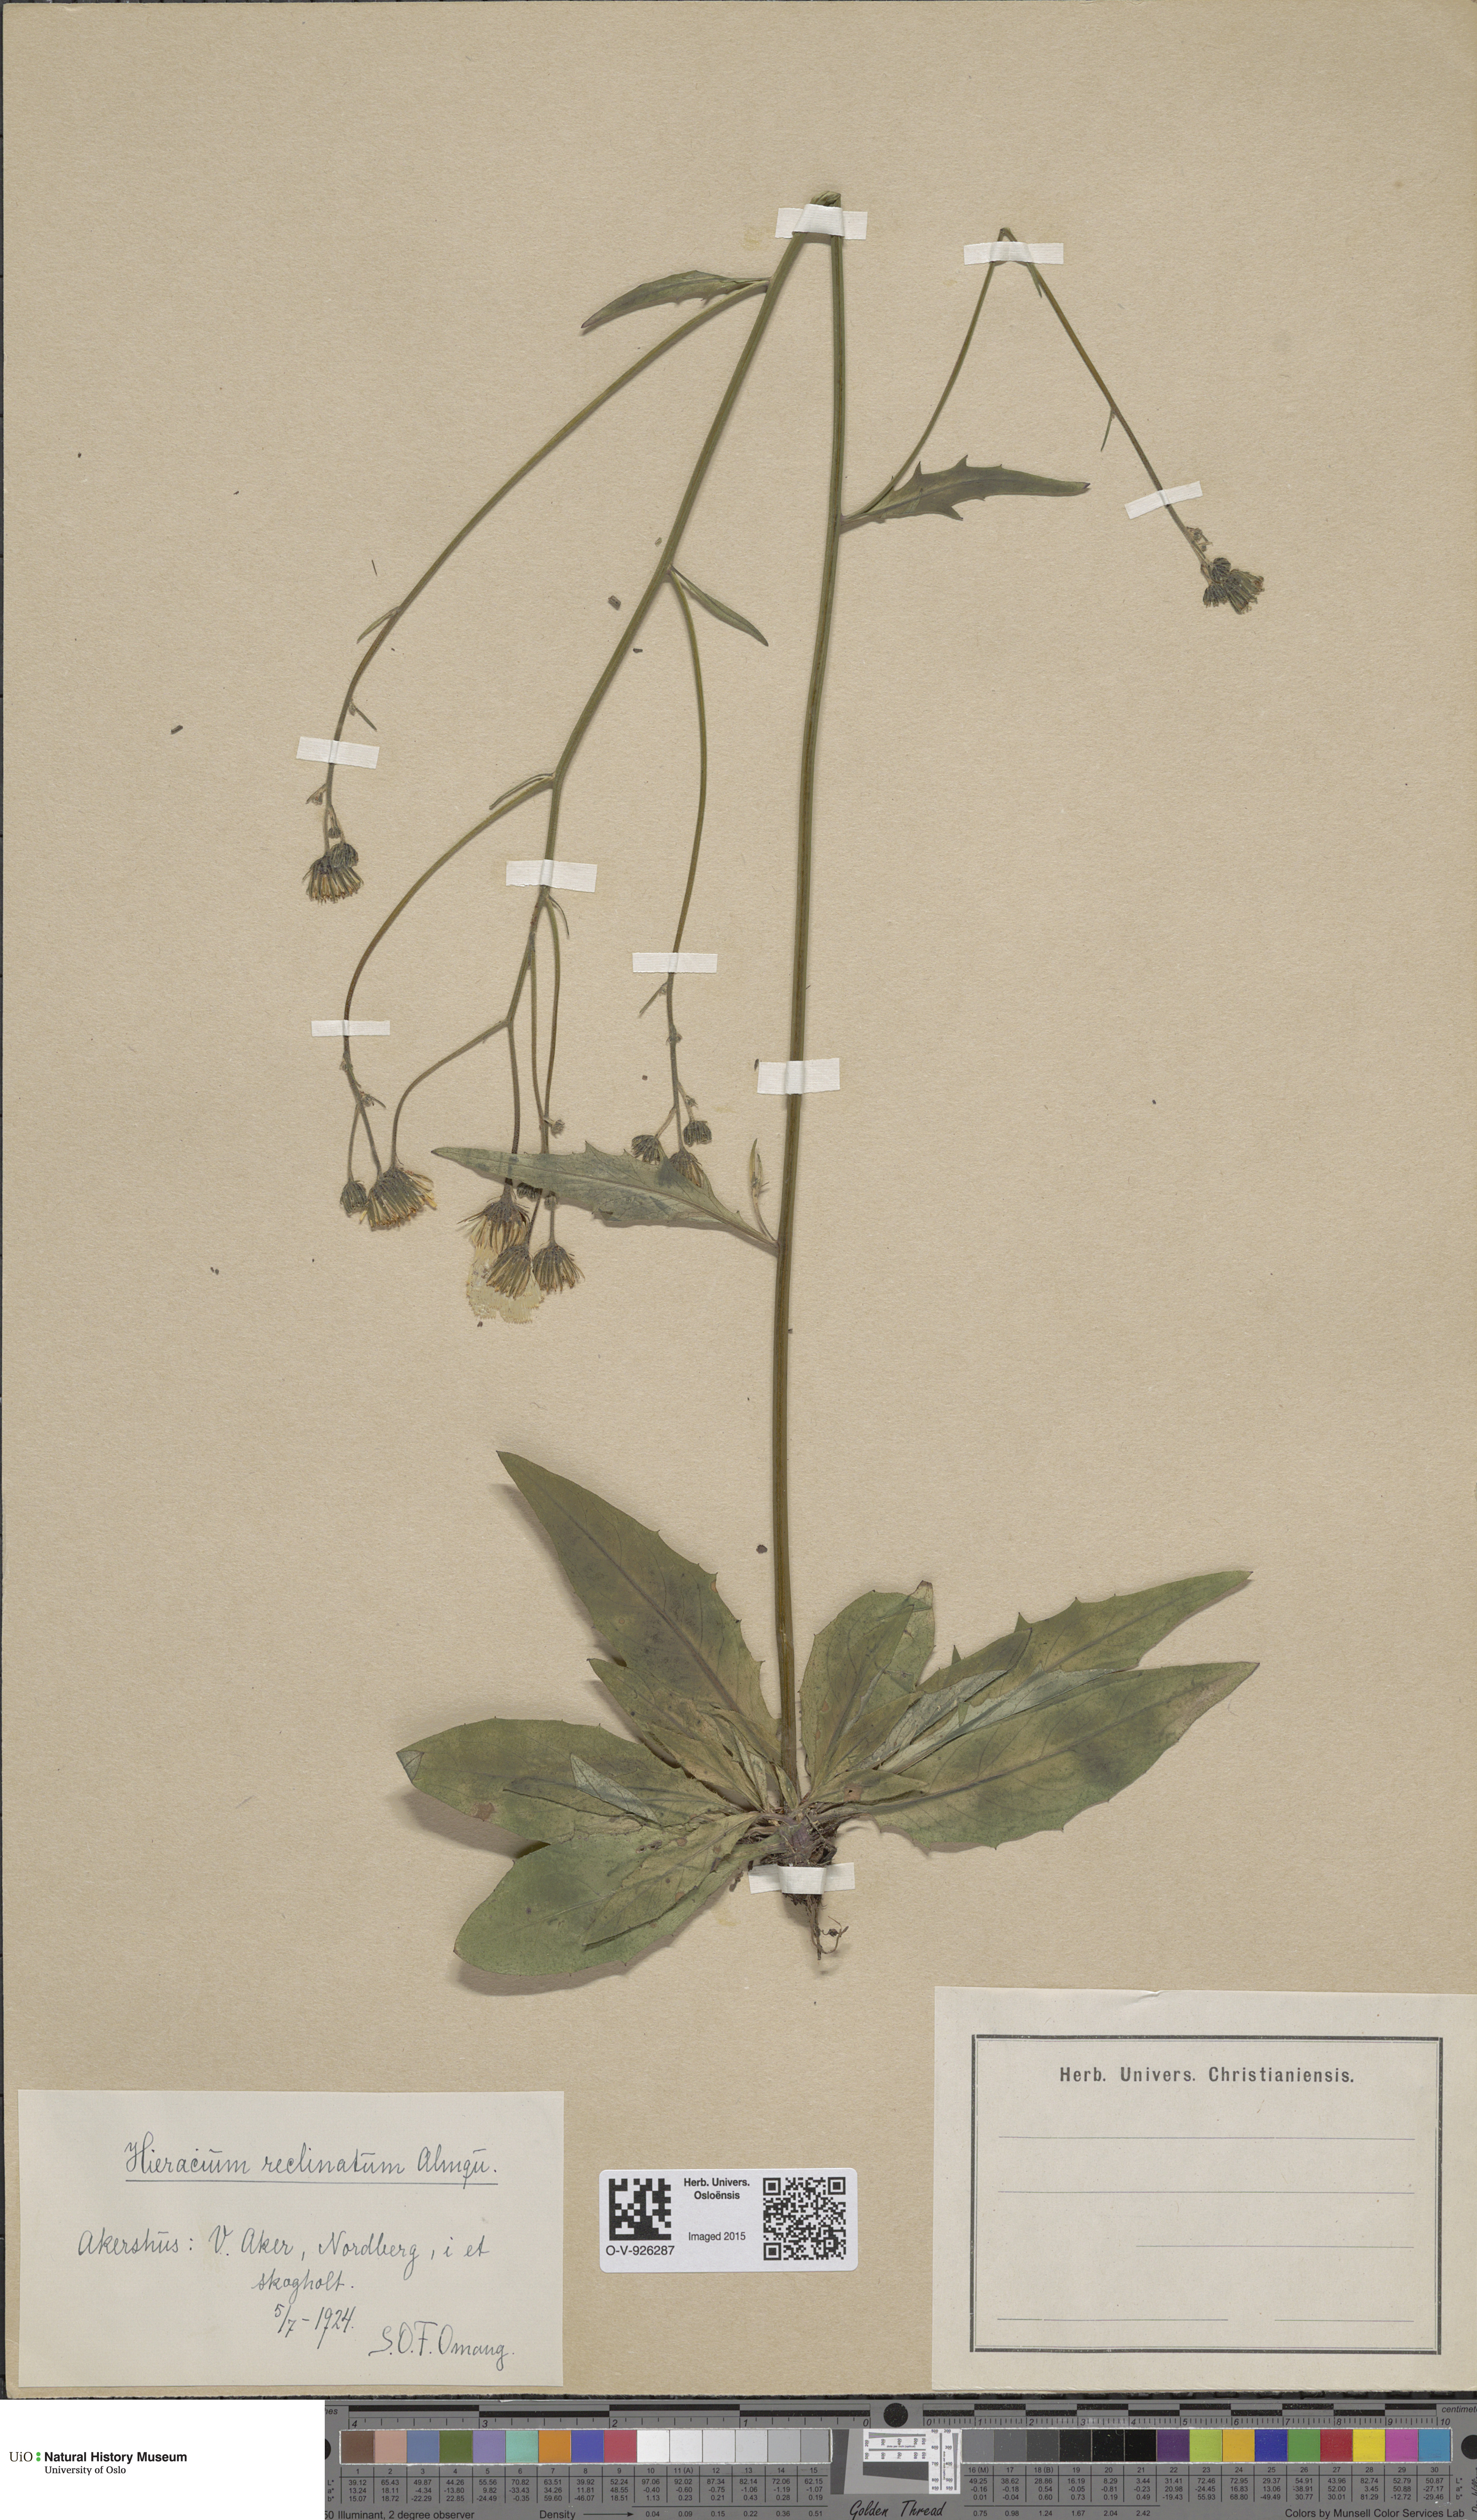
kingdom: Plantae
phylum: Tracheophyta
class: Magnoliopsida
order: Asterales
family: Asteraceae
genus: Hieracium
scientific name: Hieracium caesium
